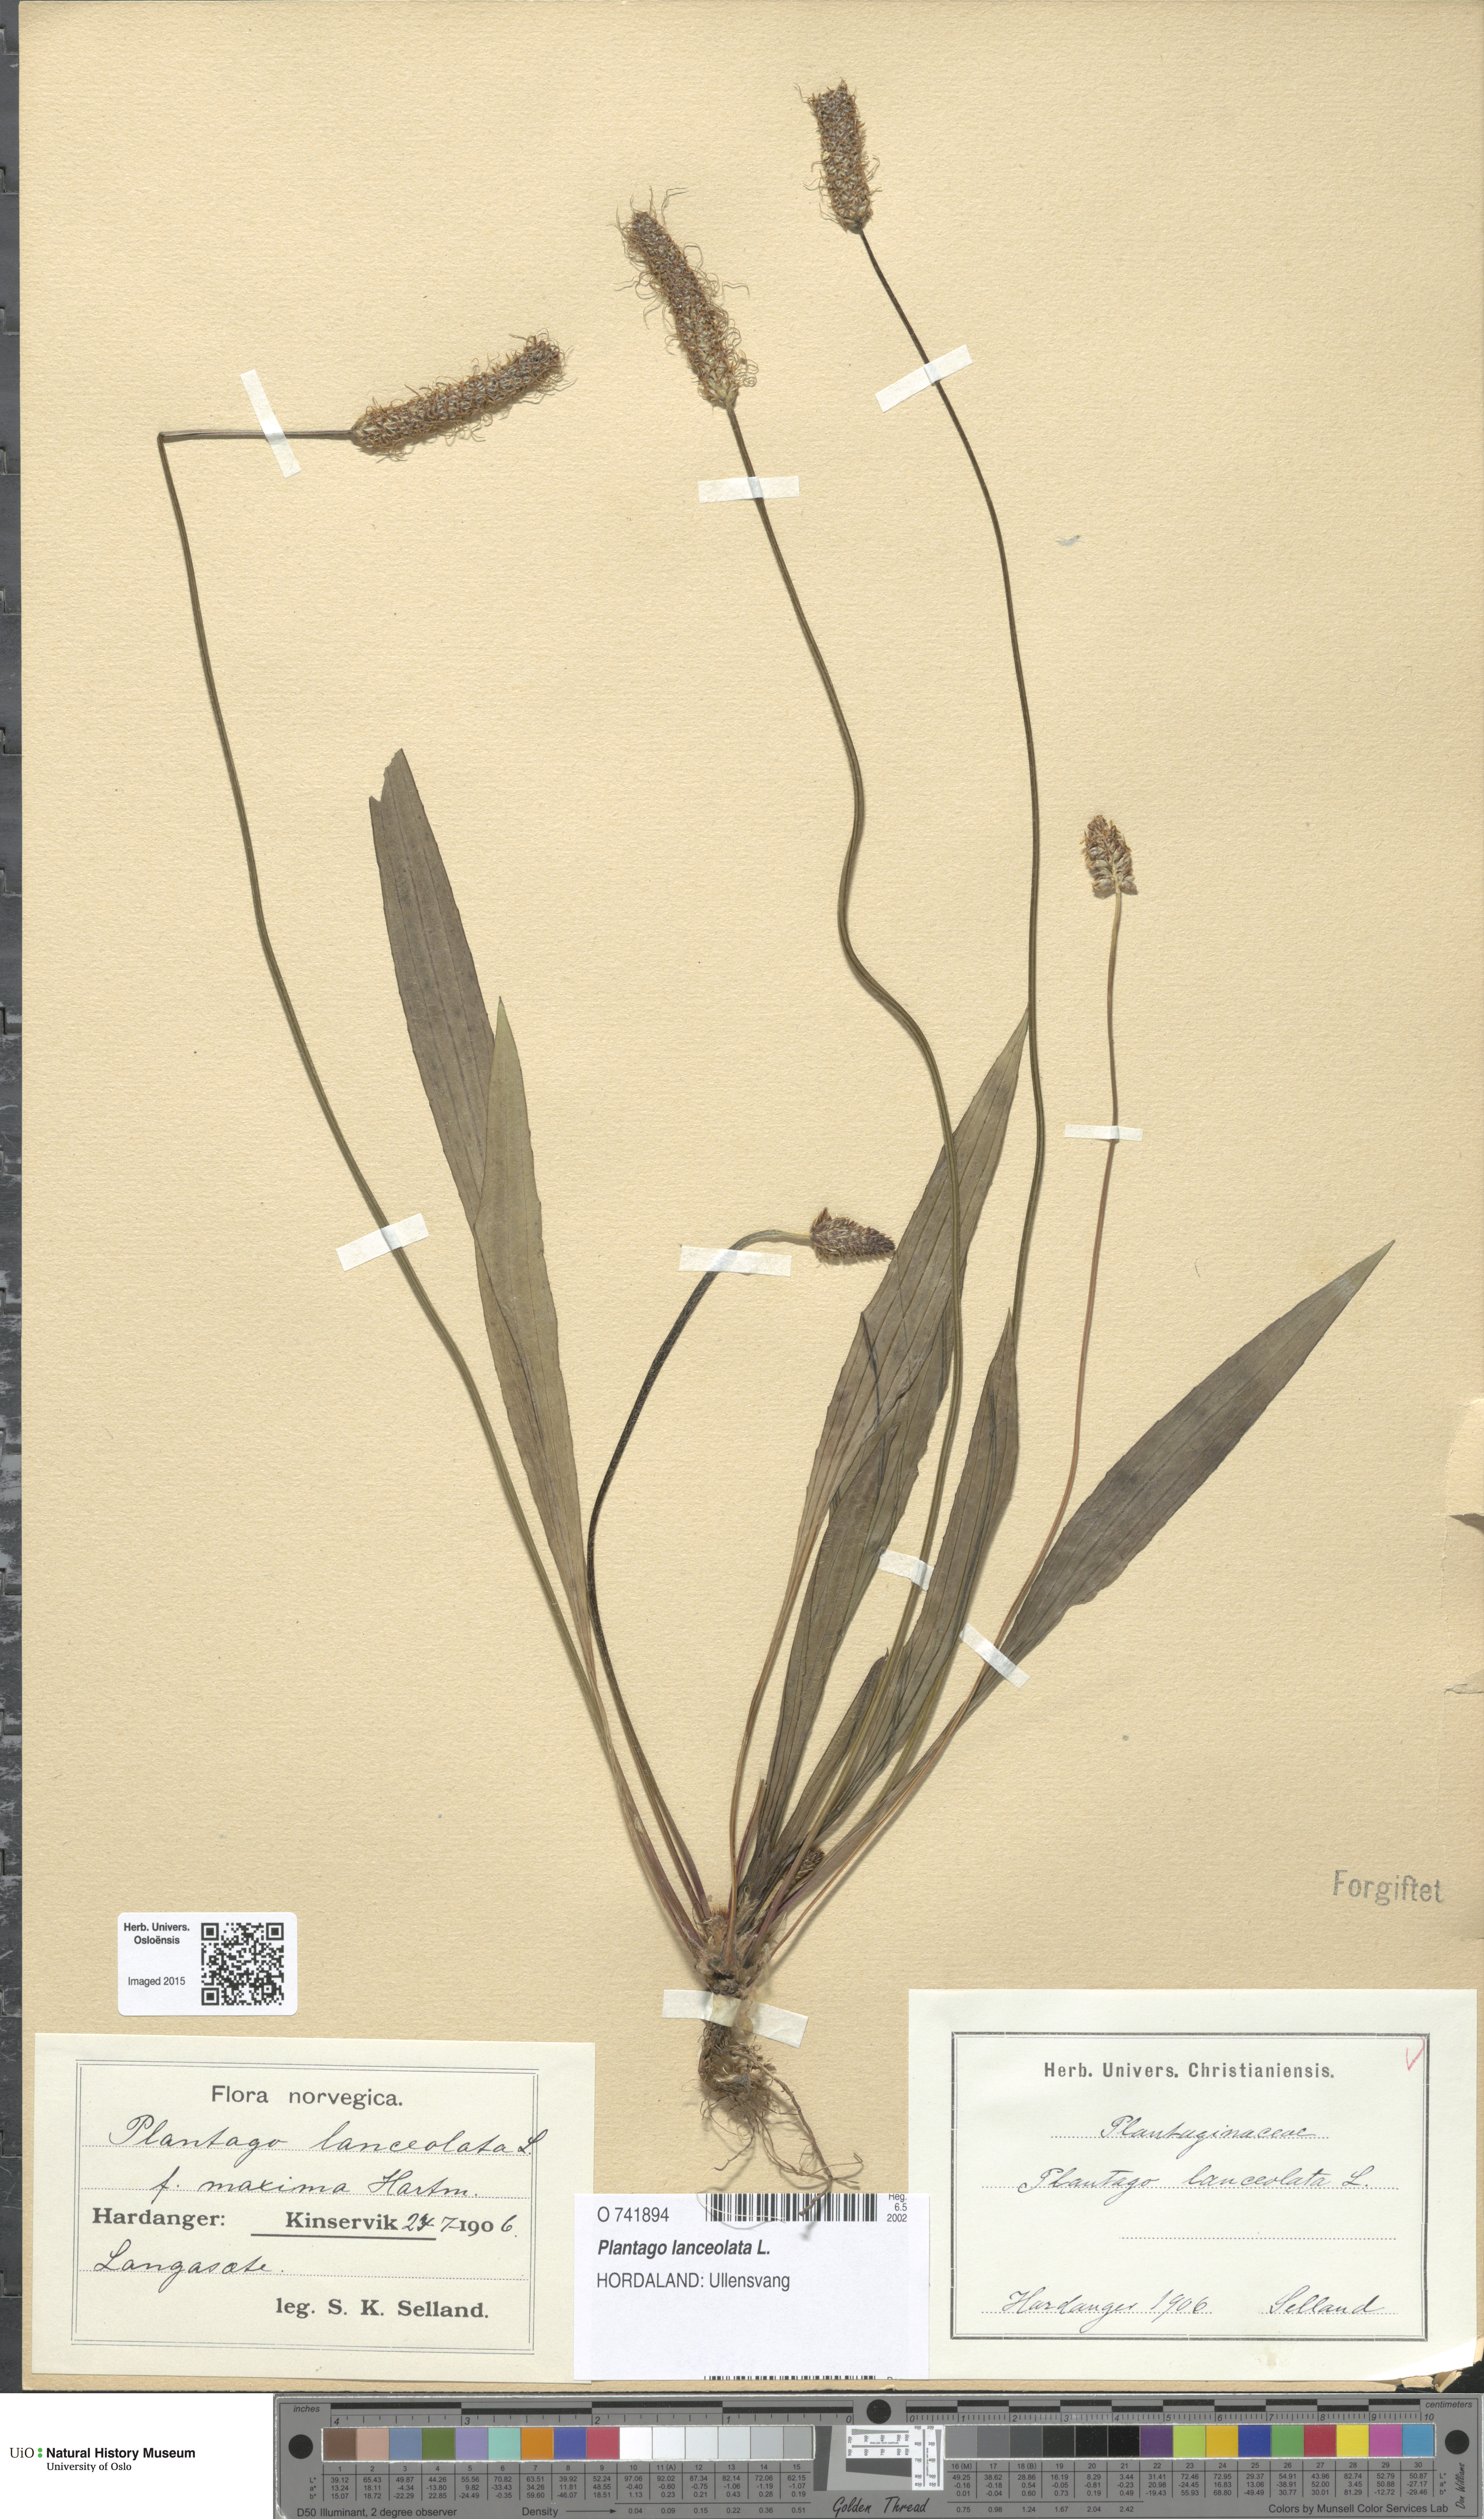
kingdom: Plantae
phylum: Tracheophyta
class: Magnoliopsida
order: Lamiales
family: Plantaginaceae
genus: Plantago
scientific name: Plantago lanceolata
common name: Ribwort plantain
